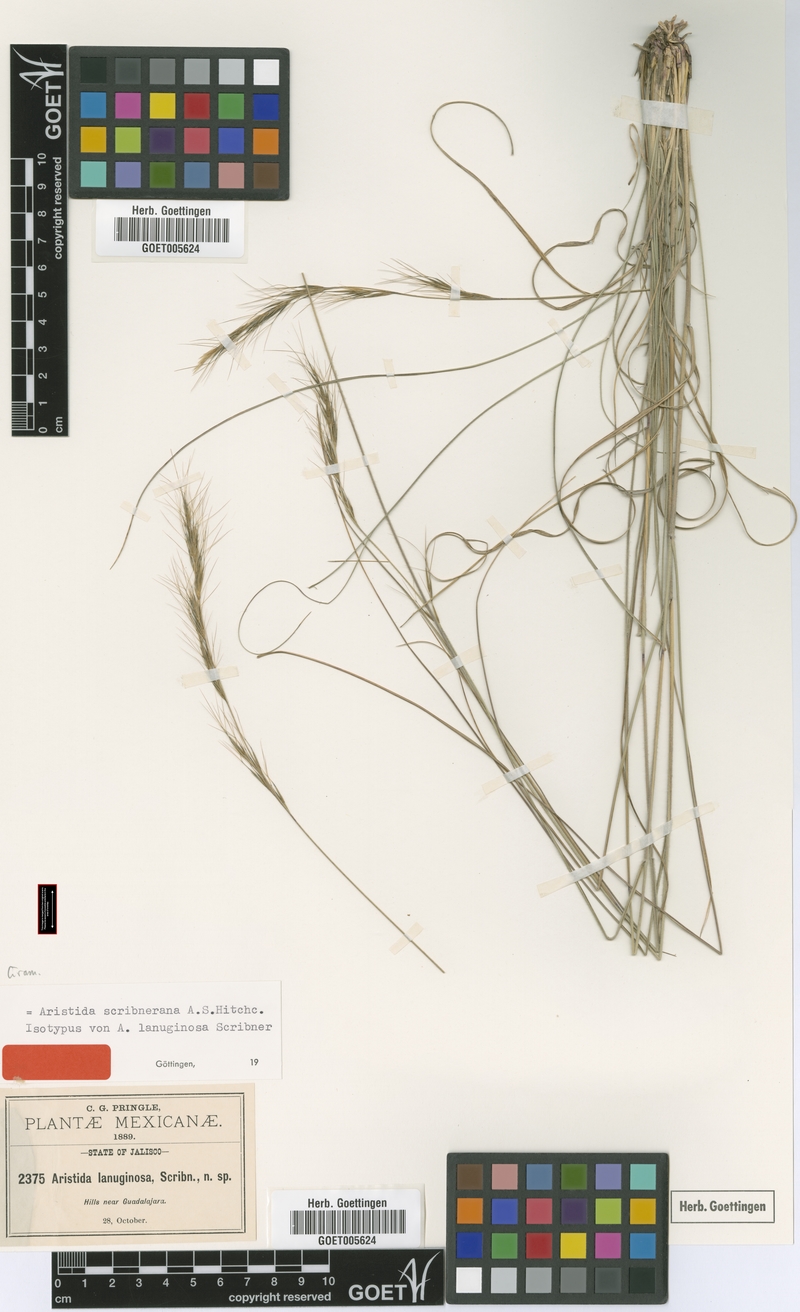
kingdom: Plantae
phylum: Tracheophyta
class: Liliopsida
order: Poales
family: Poaceae
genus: Aristida
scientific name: Aristida scribneriana
